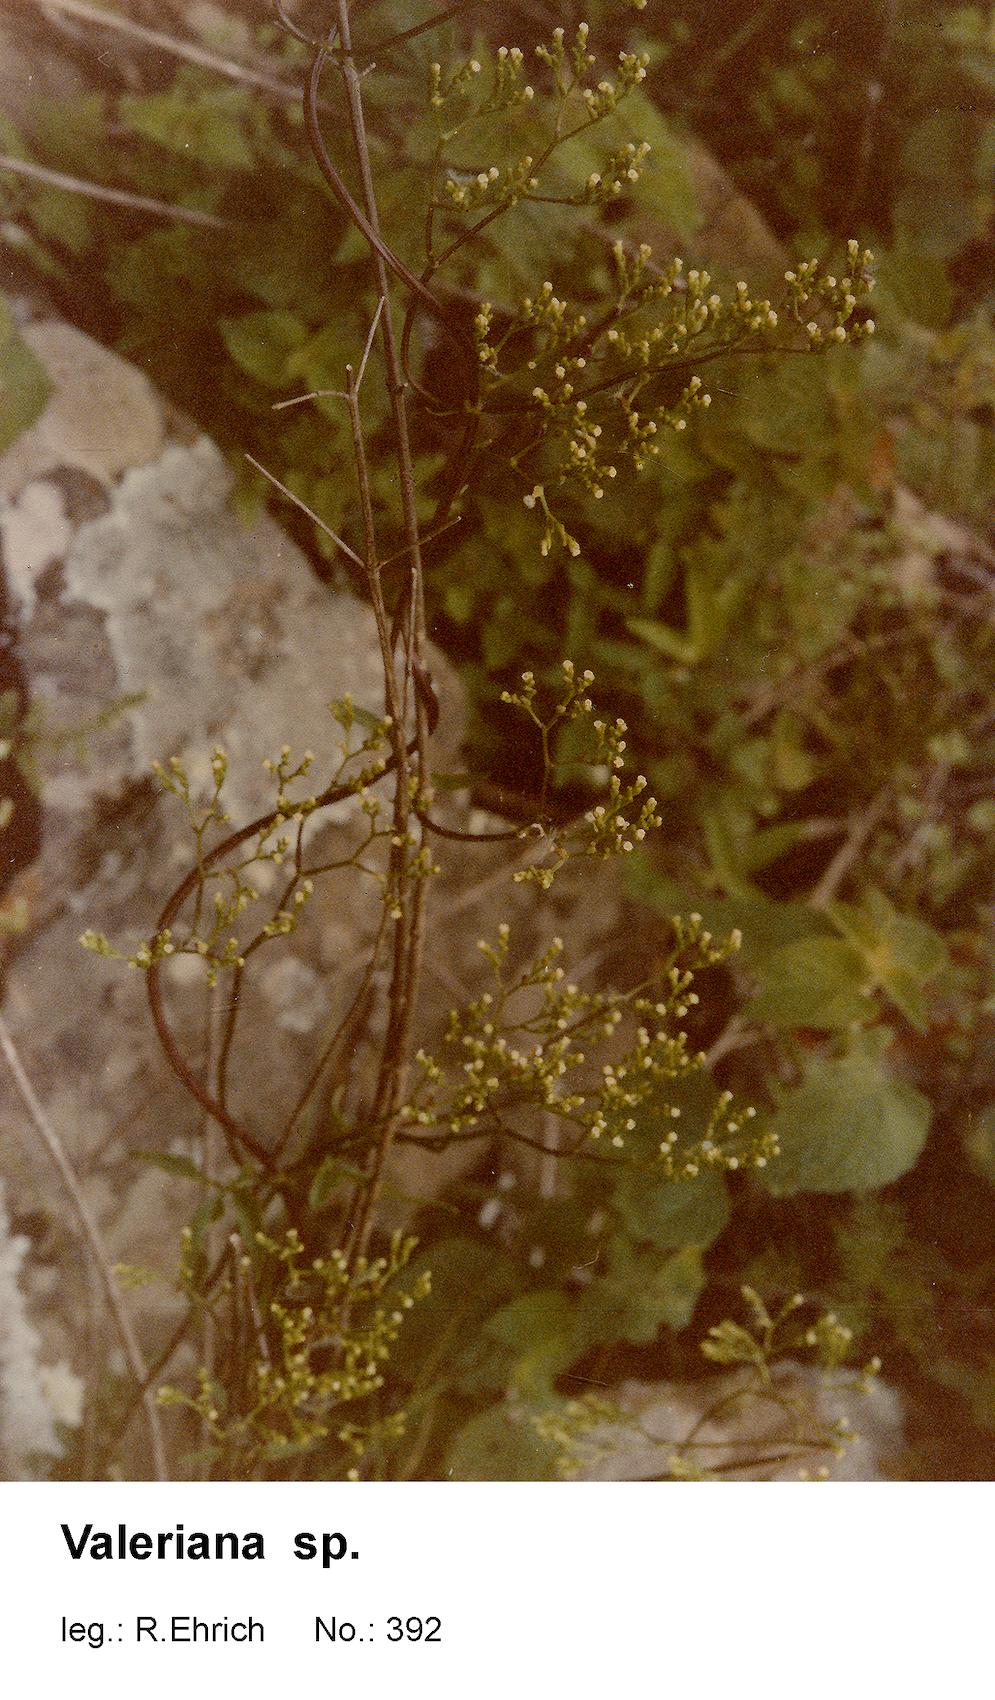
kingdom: Plantae
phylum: Tracheophyta
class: Magnoliopsida
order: Dipsacales
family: Caprifoliaceae
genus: Valeriana
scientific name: Valeriana
